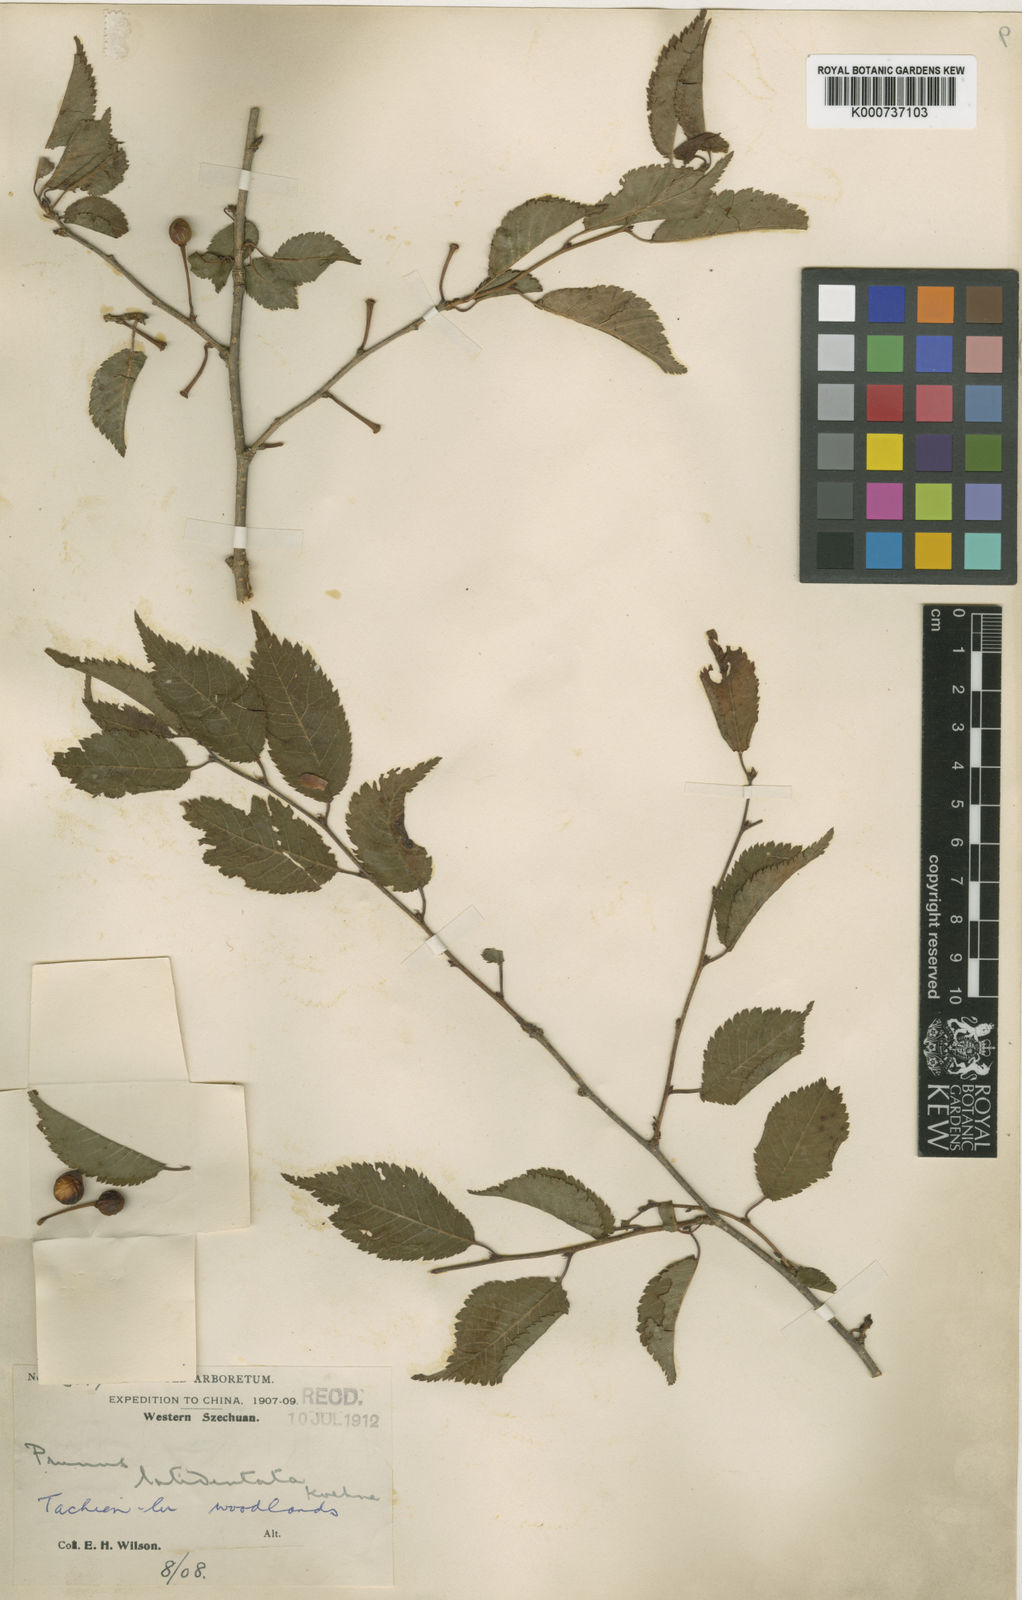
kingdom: Plantae
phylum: Tracheophyta
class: Magnoliopsida
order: Rosales
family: Rosaceae
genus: Prunus
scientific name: Prunus trichostoma
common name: Ribbed cherry
